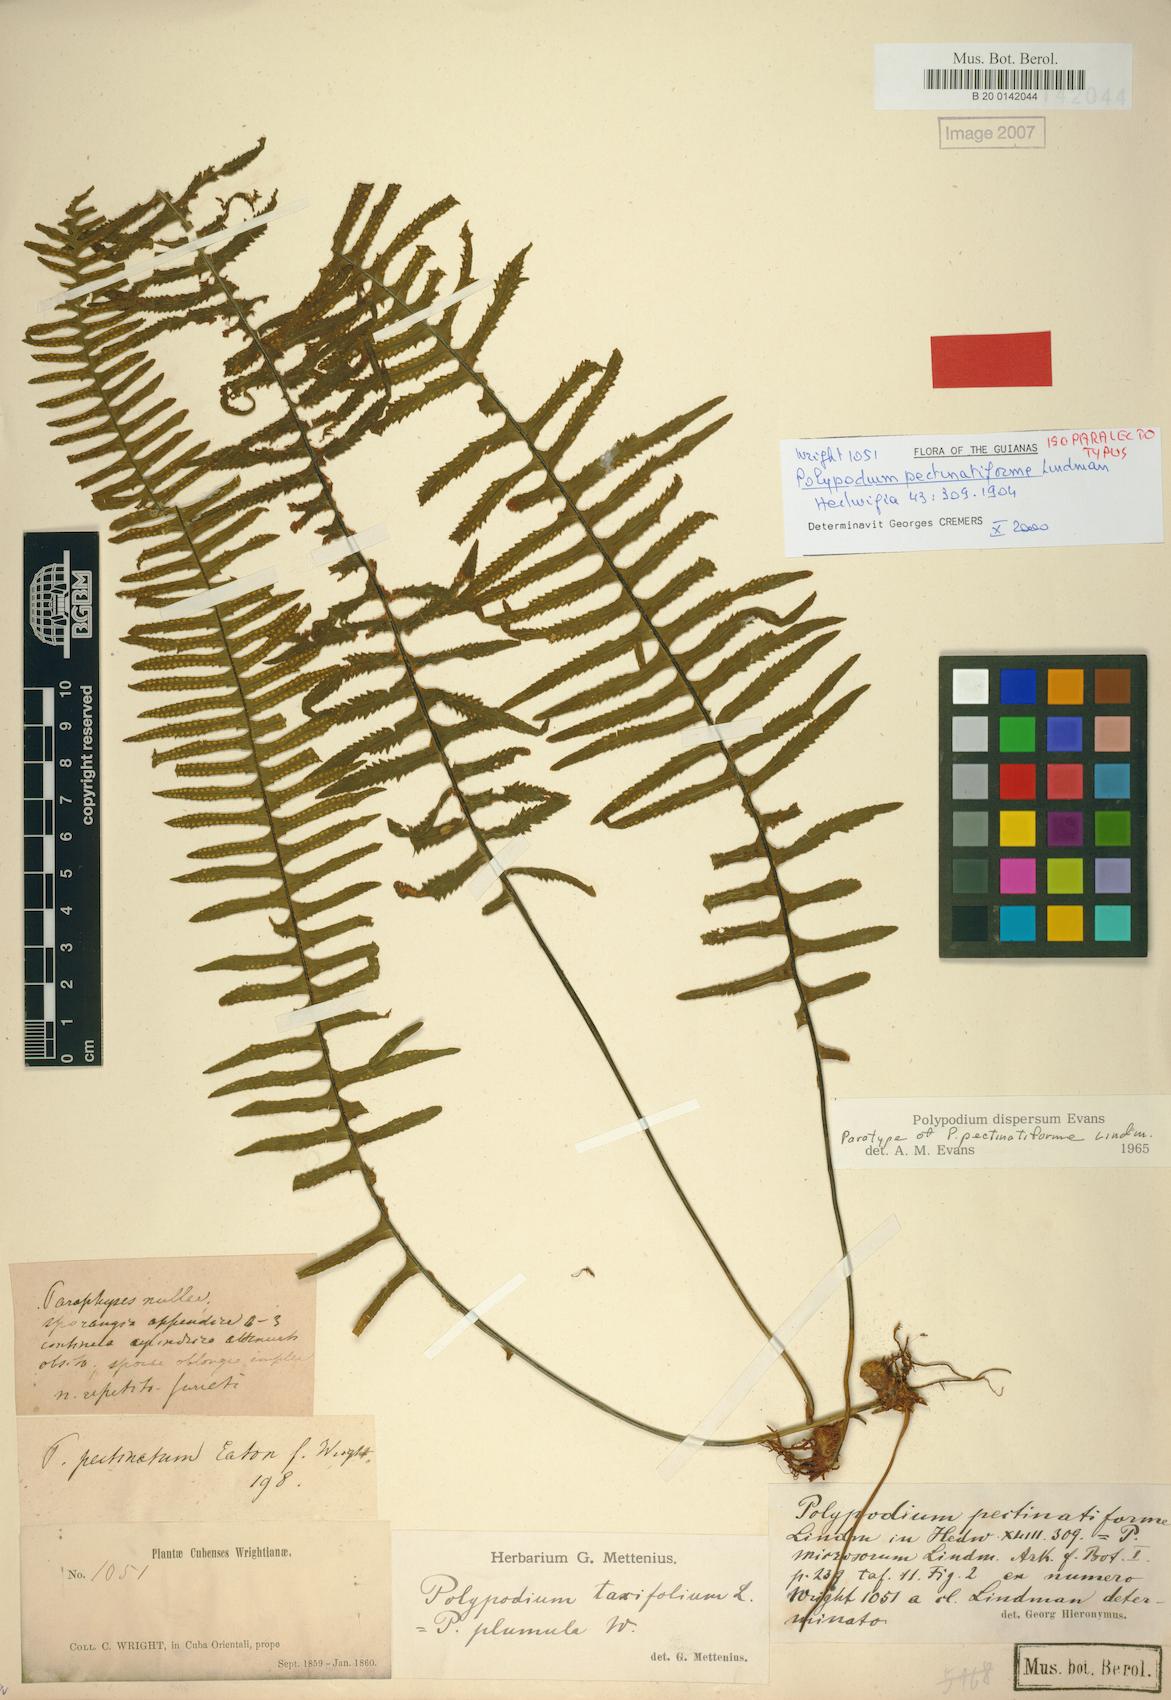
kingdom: Plantae
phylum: Tracheophyta
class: Polypodiopsida
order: Polypodiales
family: Polypodiaceae
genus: Pecluma
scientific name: Pecluma dispersa
